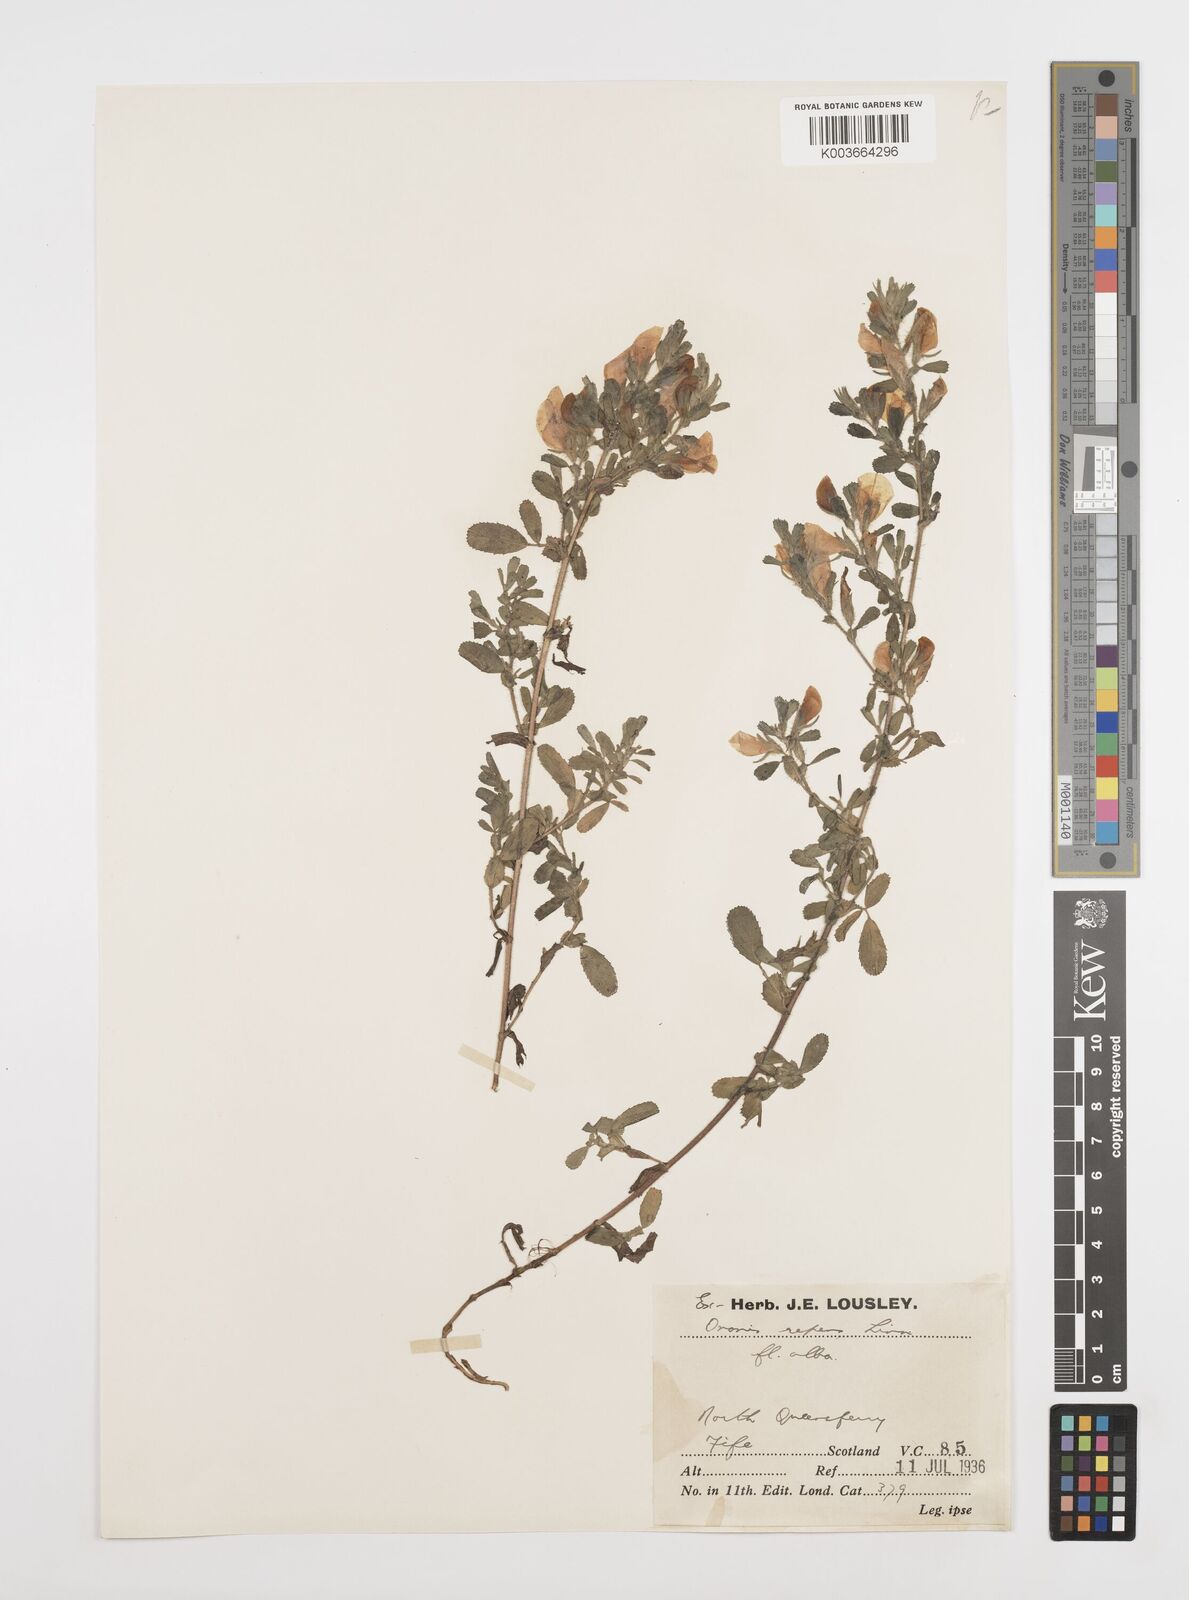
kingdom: Plantae
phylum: Tracheophyta
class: Magnoliopsida
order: Fabales
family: Fabaceae
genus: Ononis
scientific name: Ononis spinosa
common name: Spiny restharrow
